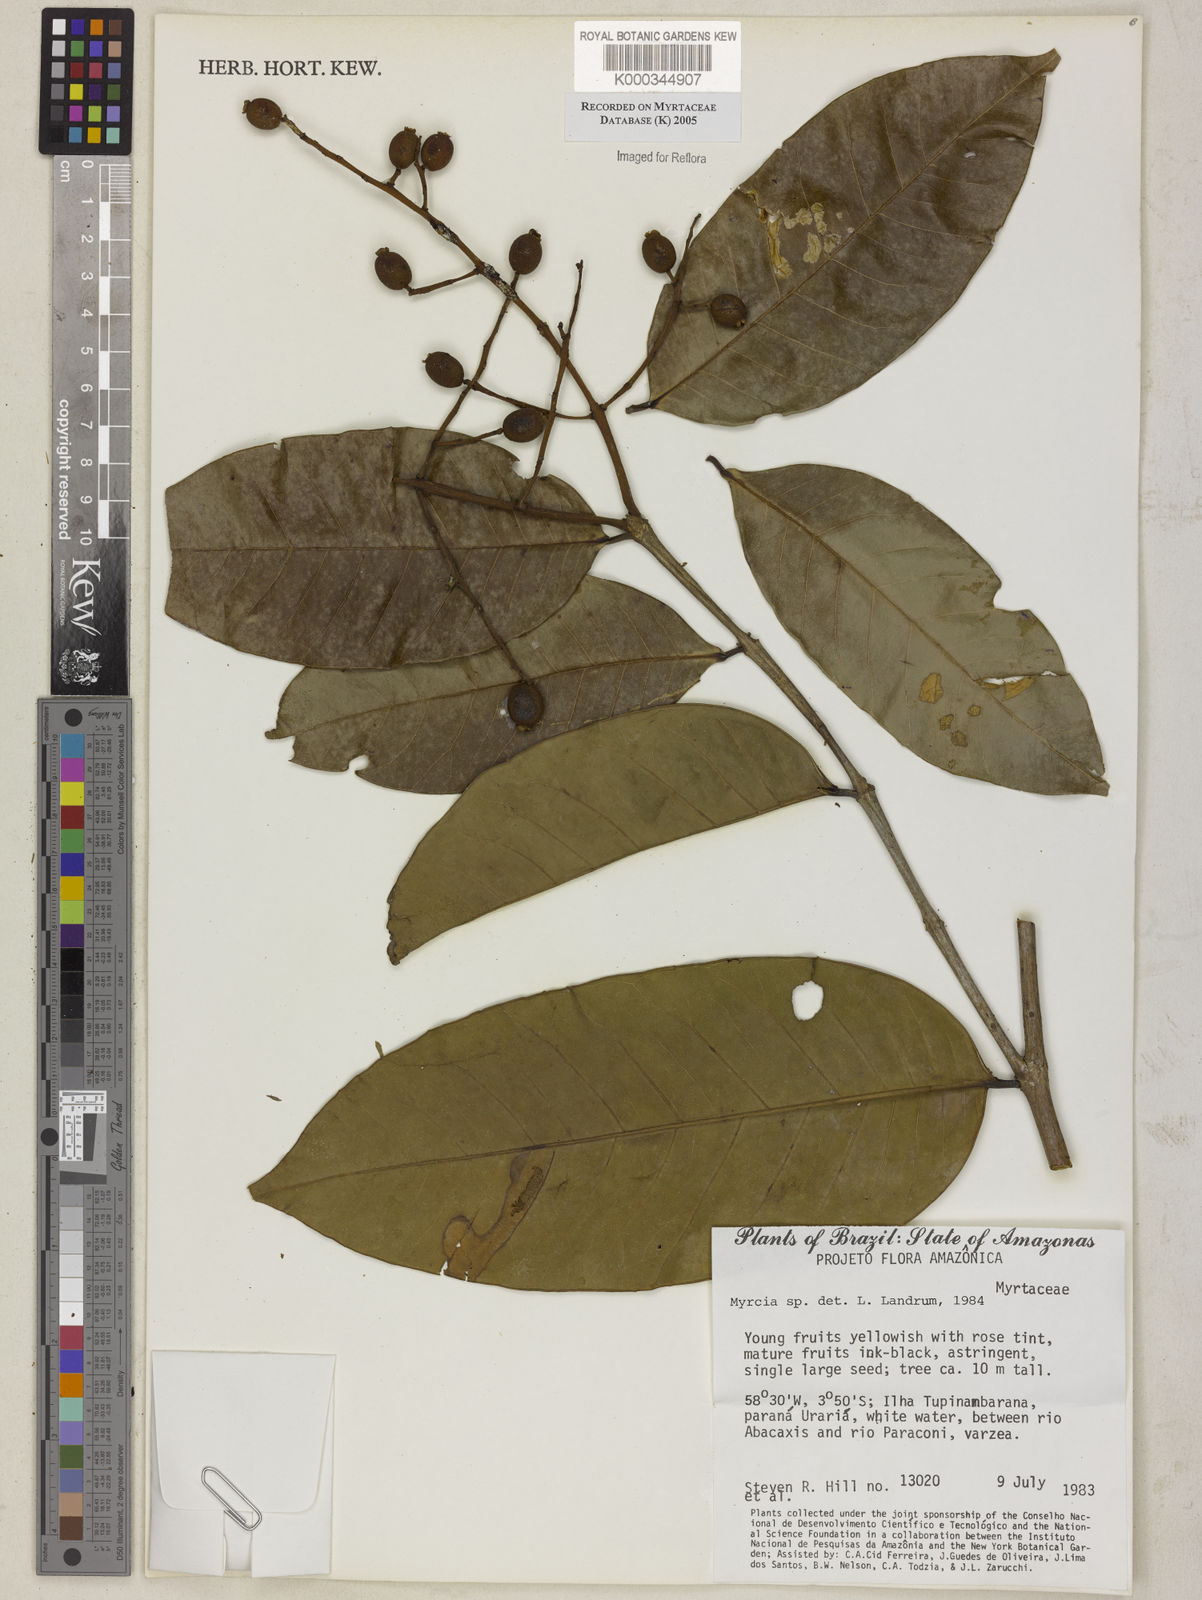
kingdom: Plantae
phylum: Tracheophyta
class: Magnoliopsida
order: Myrtales
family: Myrtaceae
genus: Myrcia
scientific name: Myrcia
